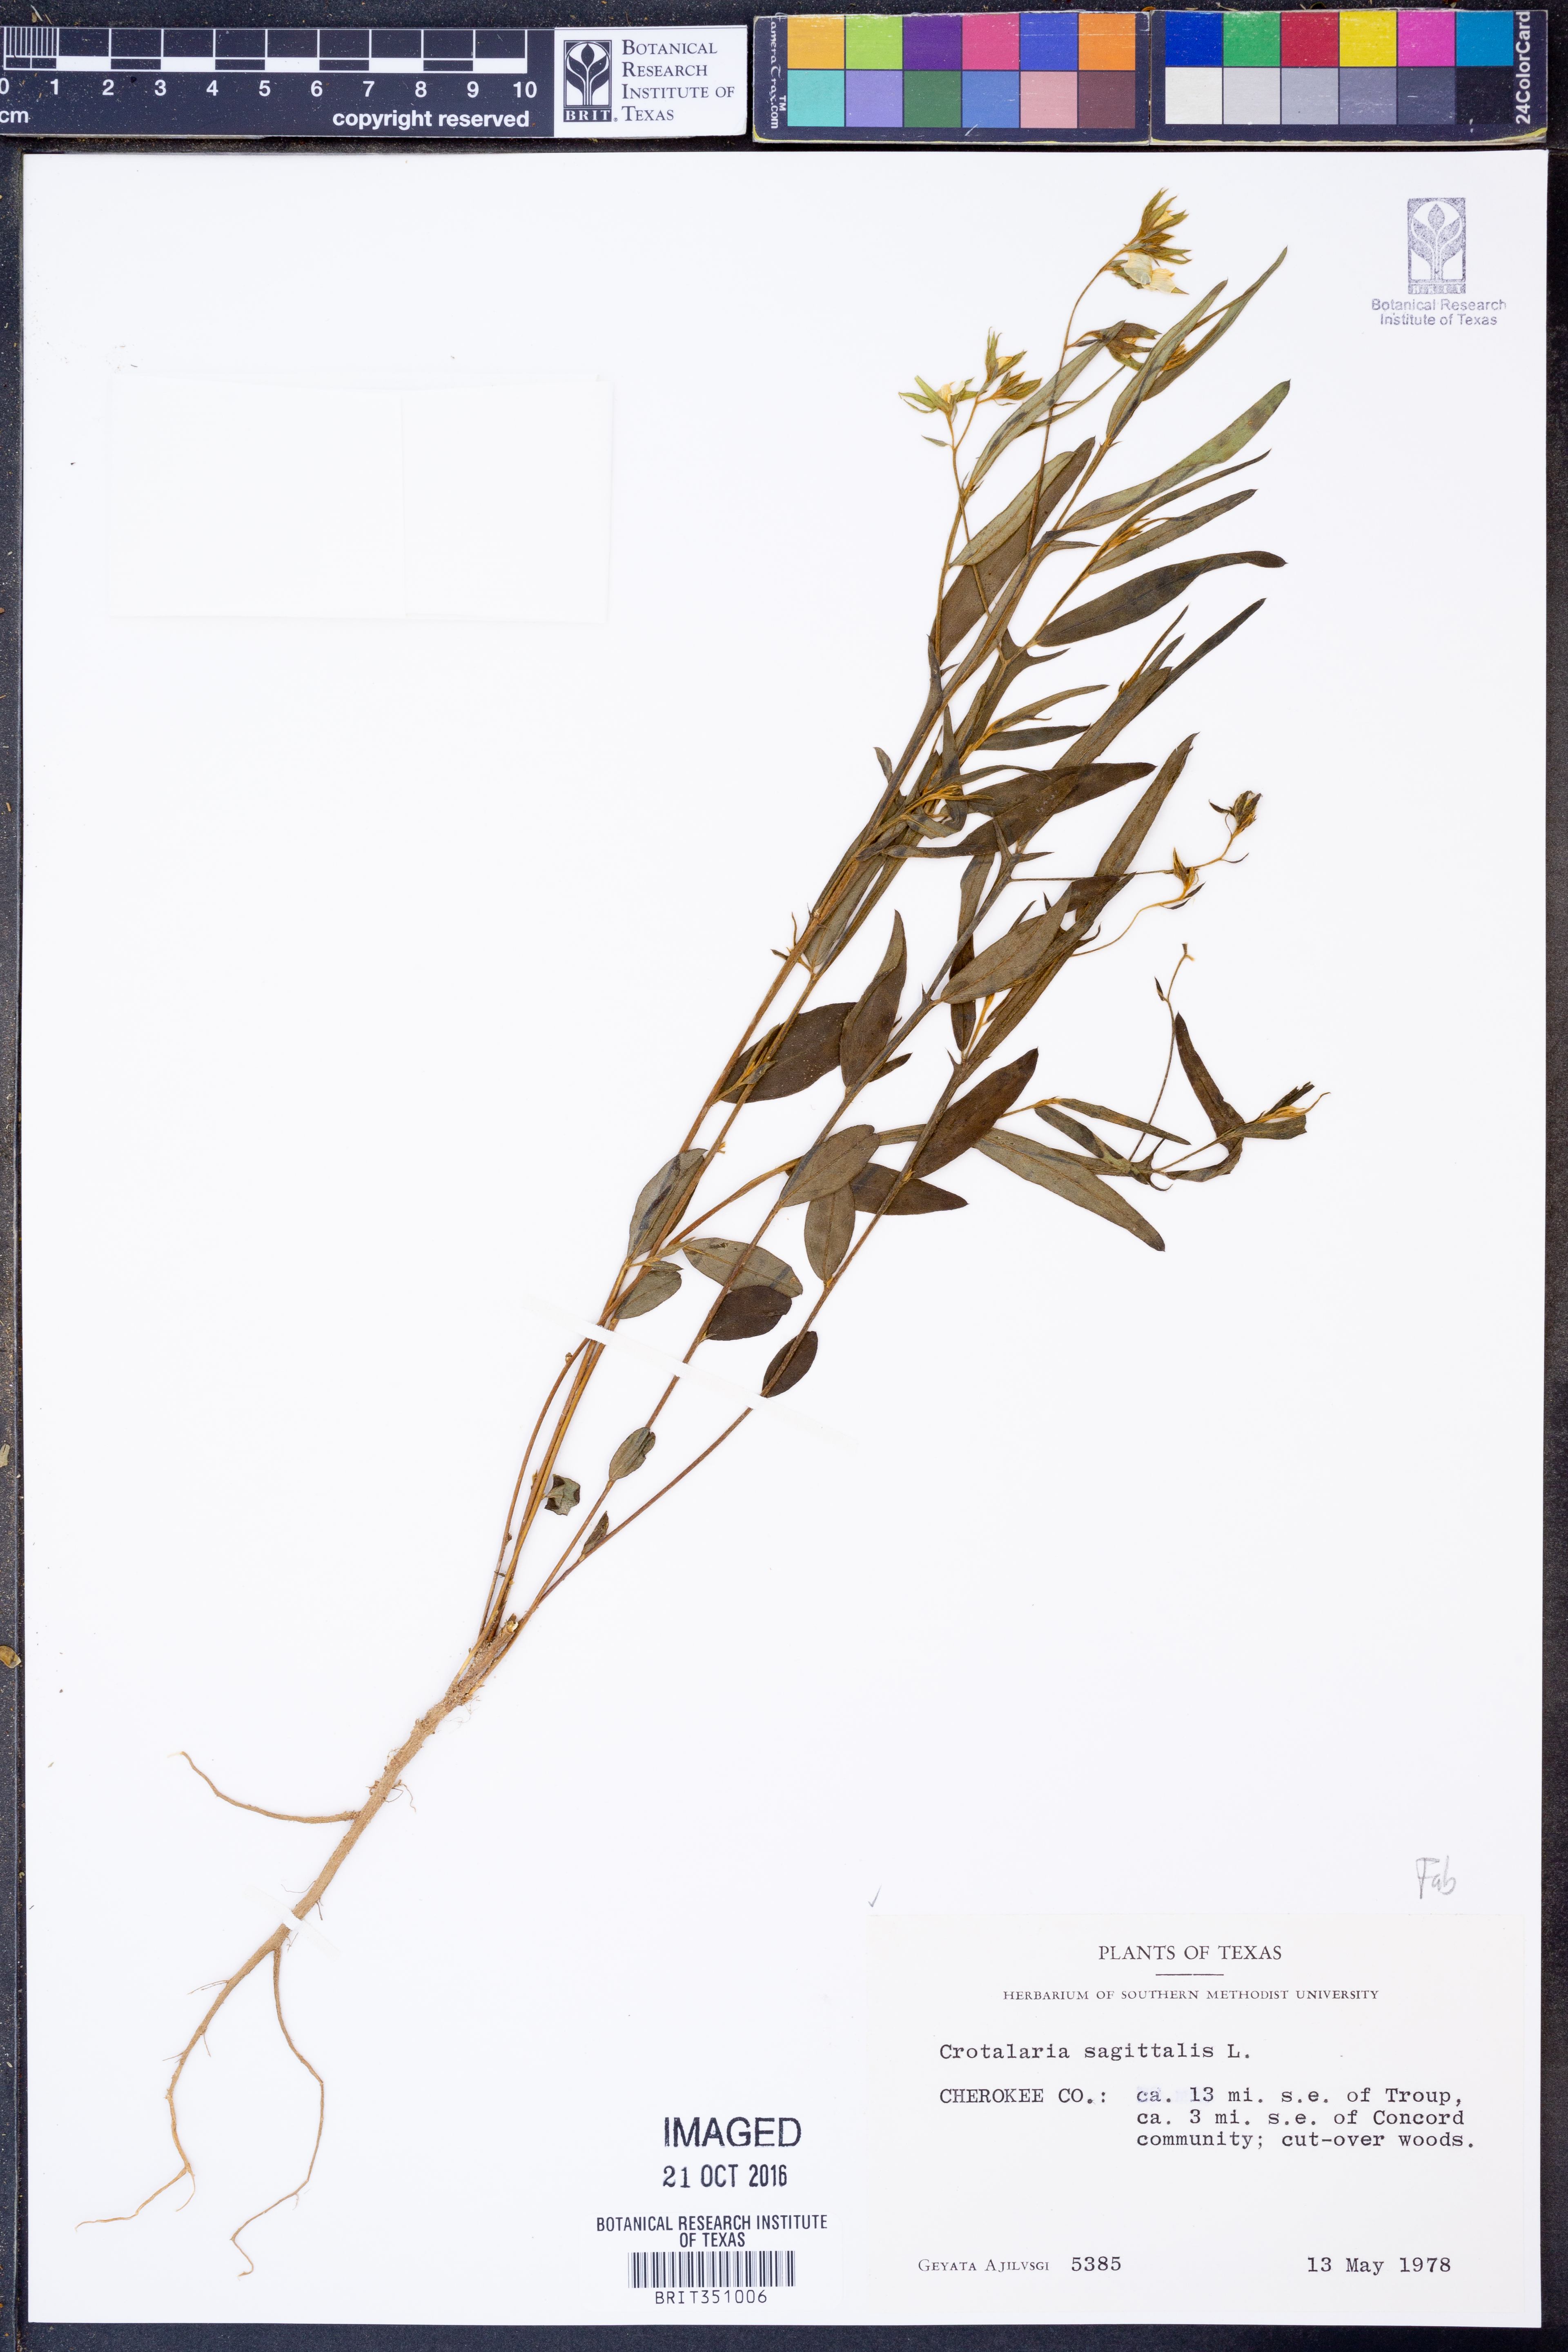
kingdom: Plantae
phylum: Tracheophyta
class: Magnoliopsida
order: Fabales
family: Fabaceae
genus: Crotalaria
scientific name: Crotalaria sagittalis
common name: Arrowhead rattlebox
